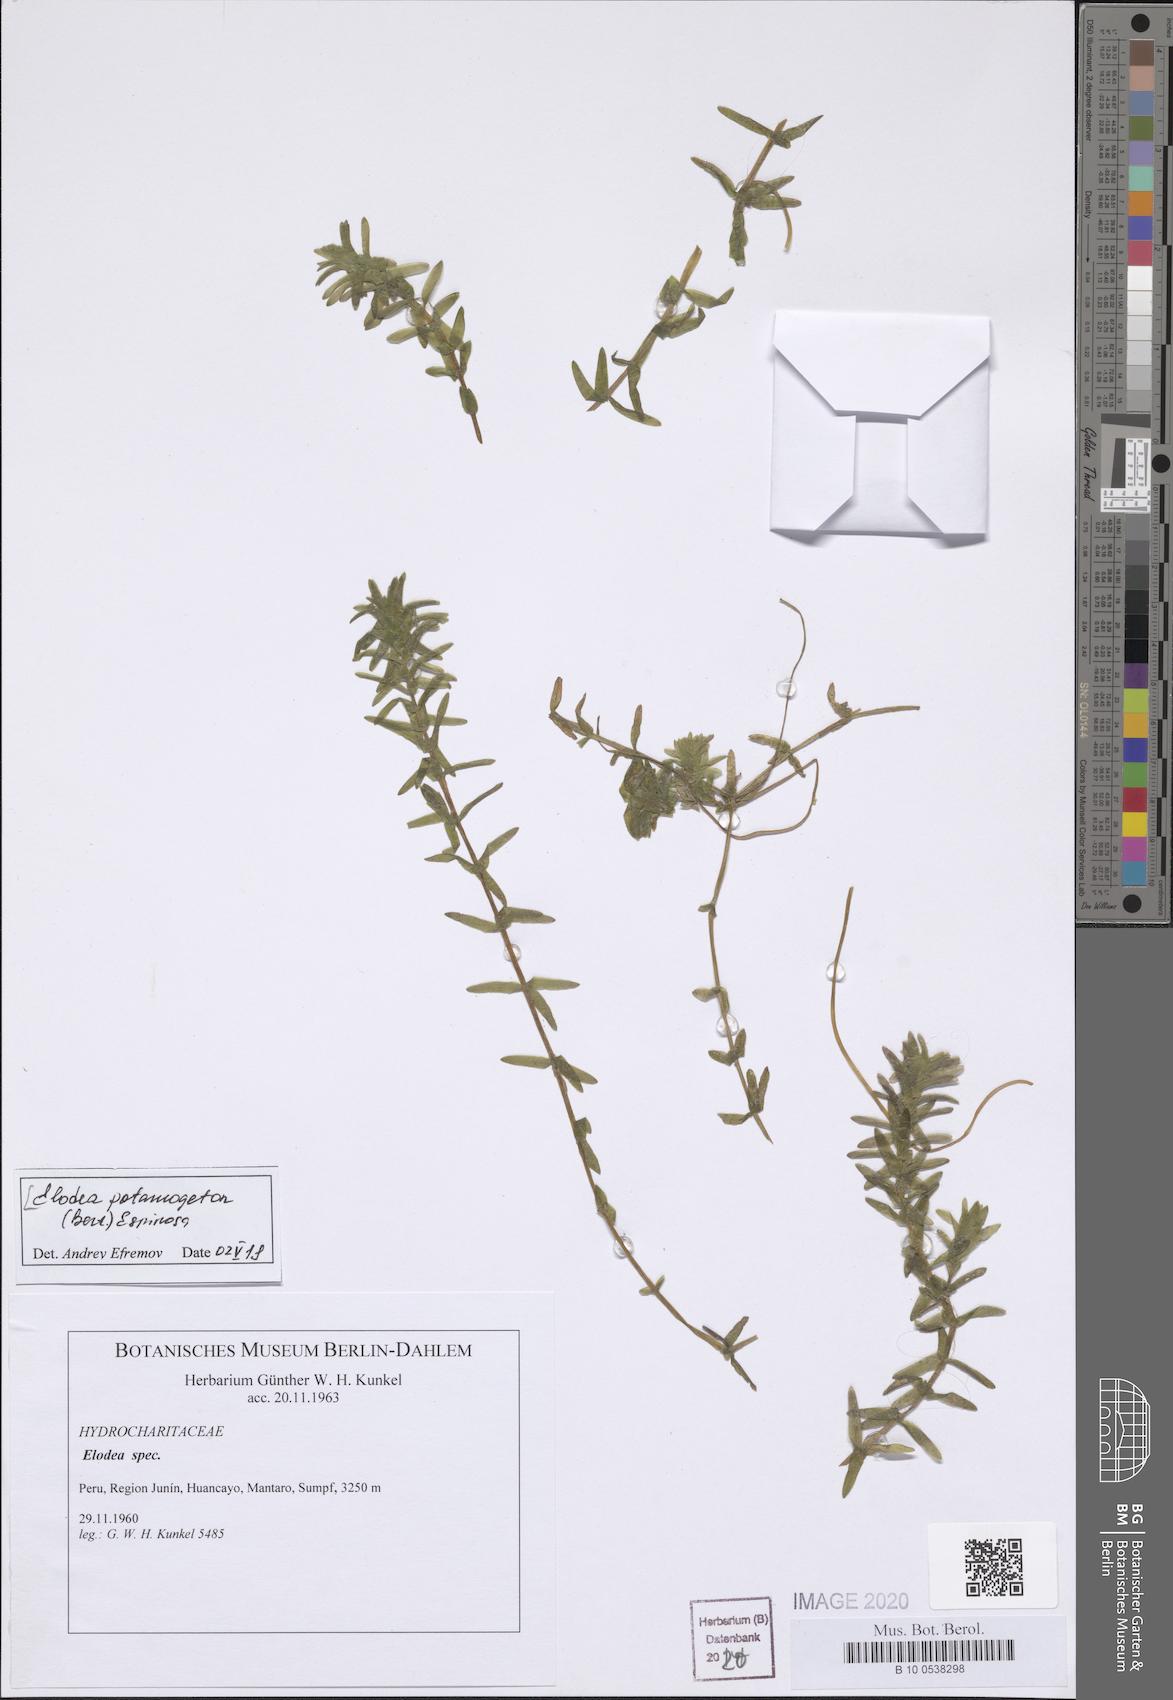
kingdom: Plantae
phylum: Tracheophyta
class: Liliopsida
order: Alismatales
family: Hydrocharitaceae
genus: Elodea
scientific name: Elodea potamogeton
